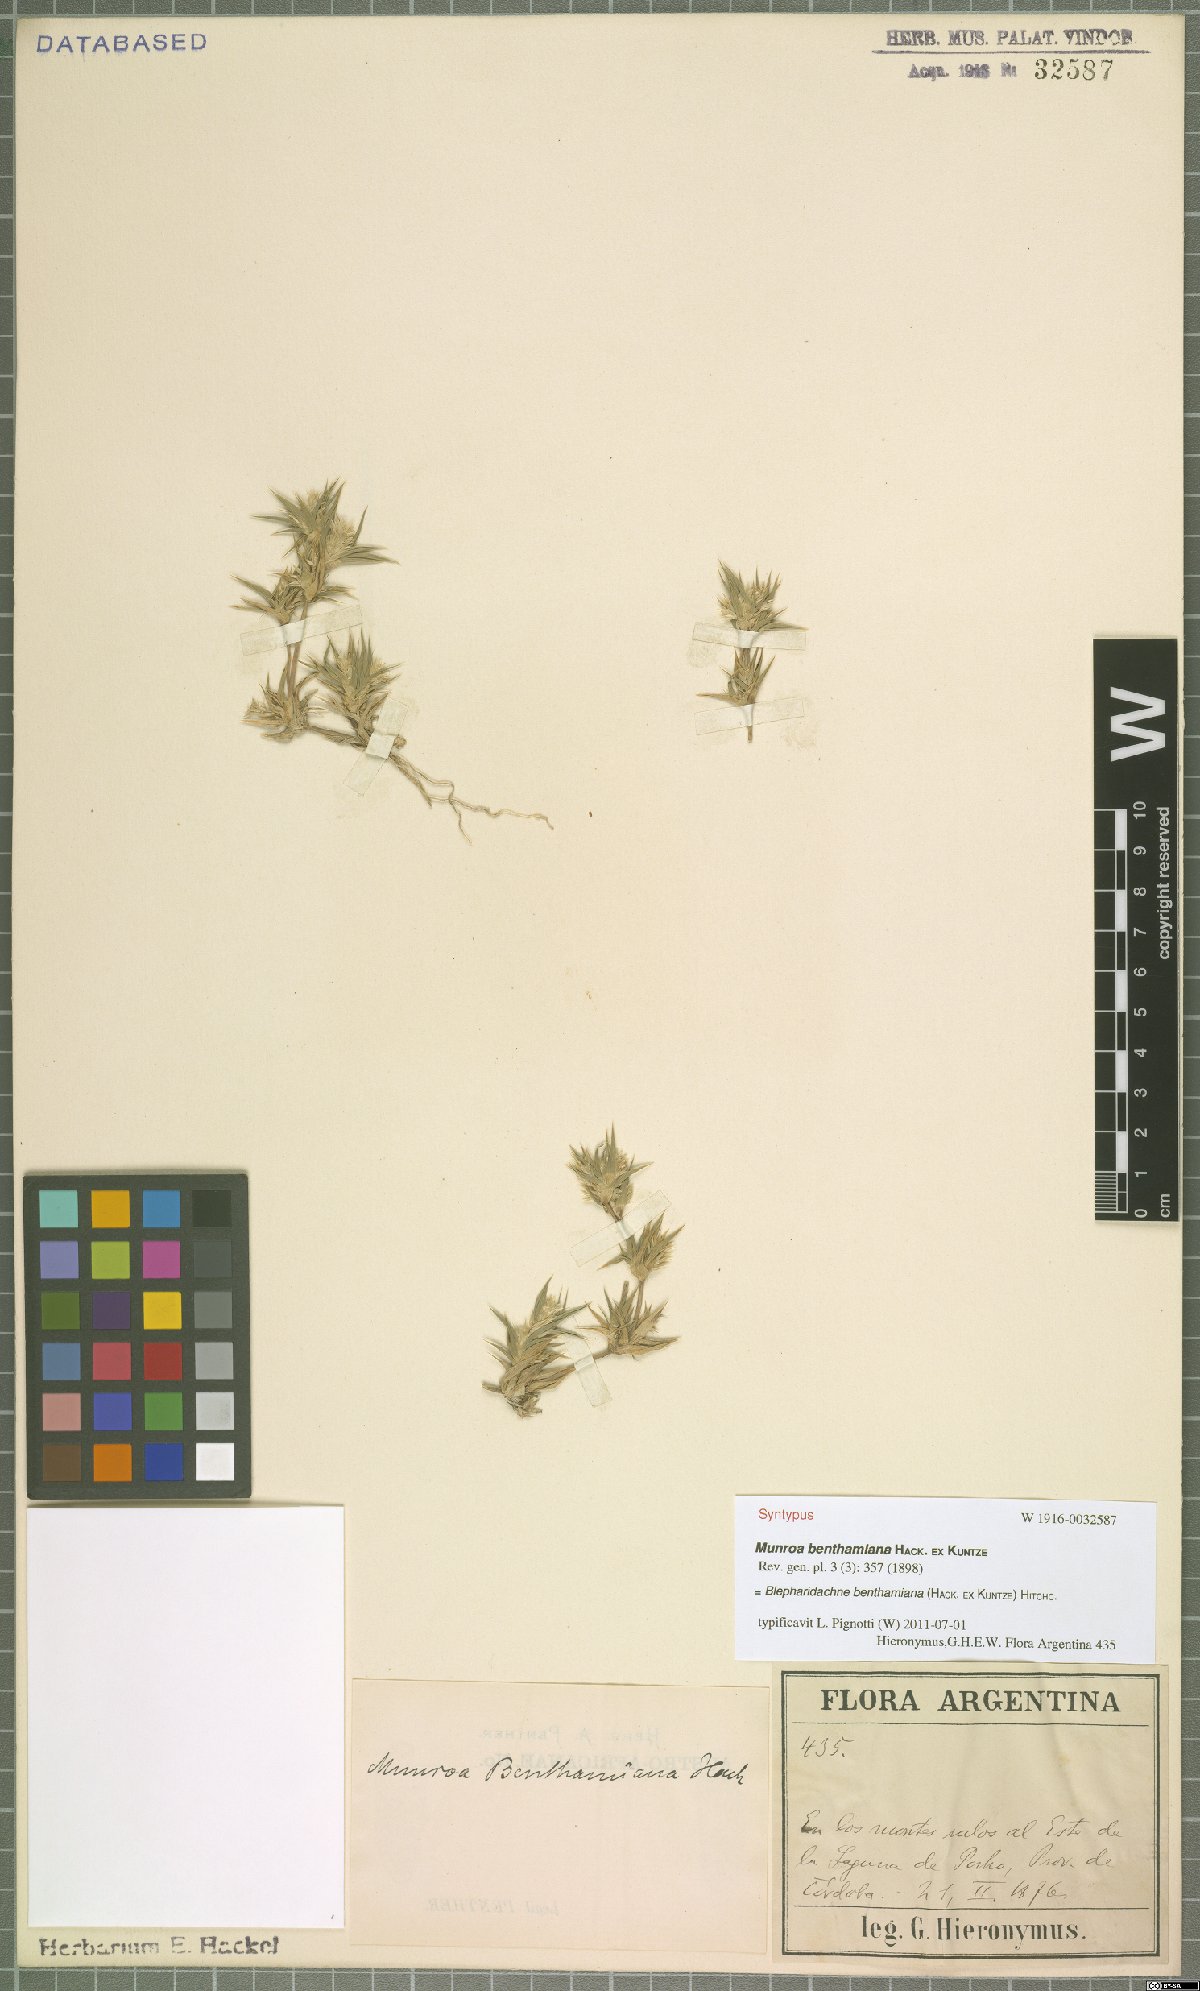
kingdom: Plantae
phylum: Tracheophyta
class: Liliopsida
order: Poales
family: Poaceae
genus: Blepharidachne
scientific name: Blepharidachne benthamiana
